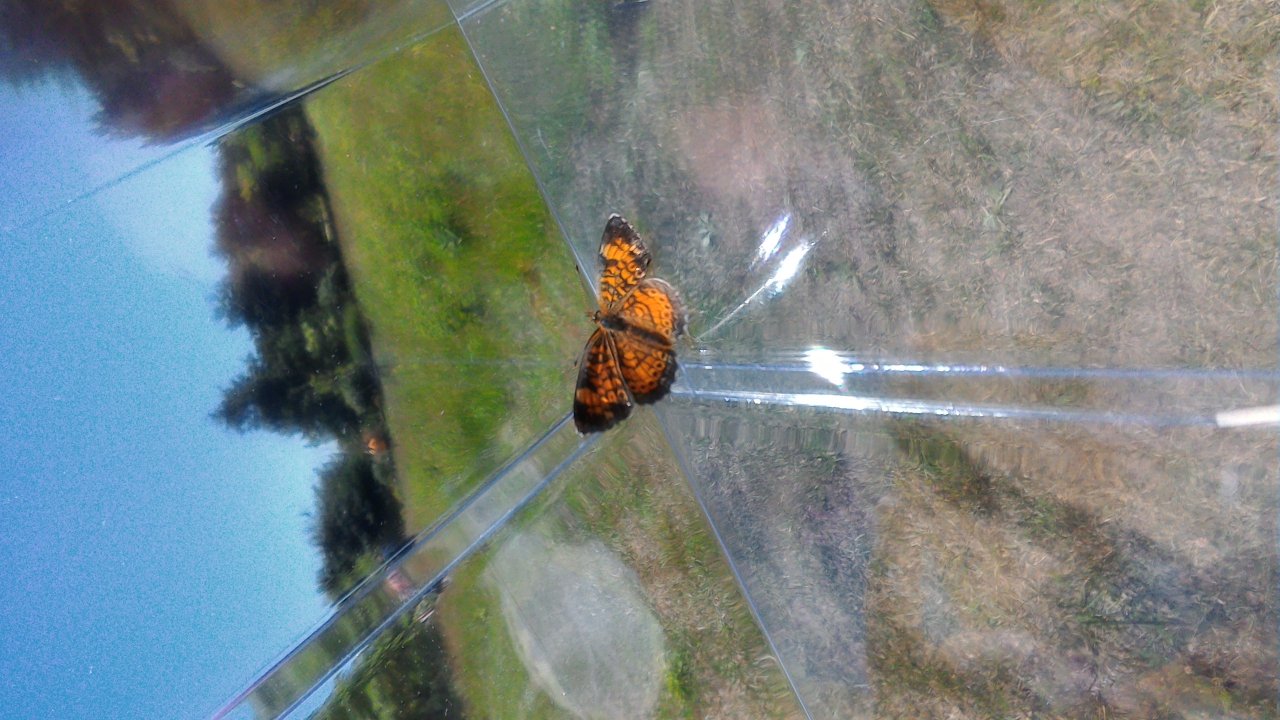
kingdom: Animalia
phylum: Arthropoda
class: Insecta
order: Lepidoptera
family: Nymphalidae
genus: Phyciodes
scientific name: Phyciodes tharos
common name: Pearl Crescent
